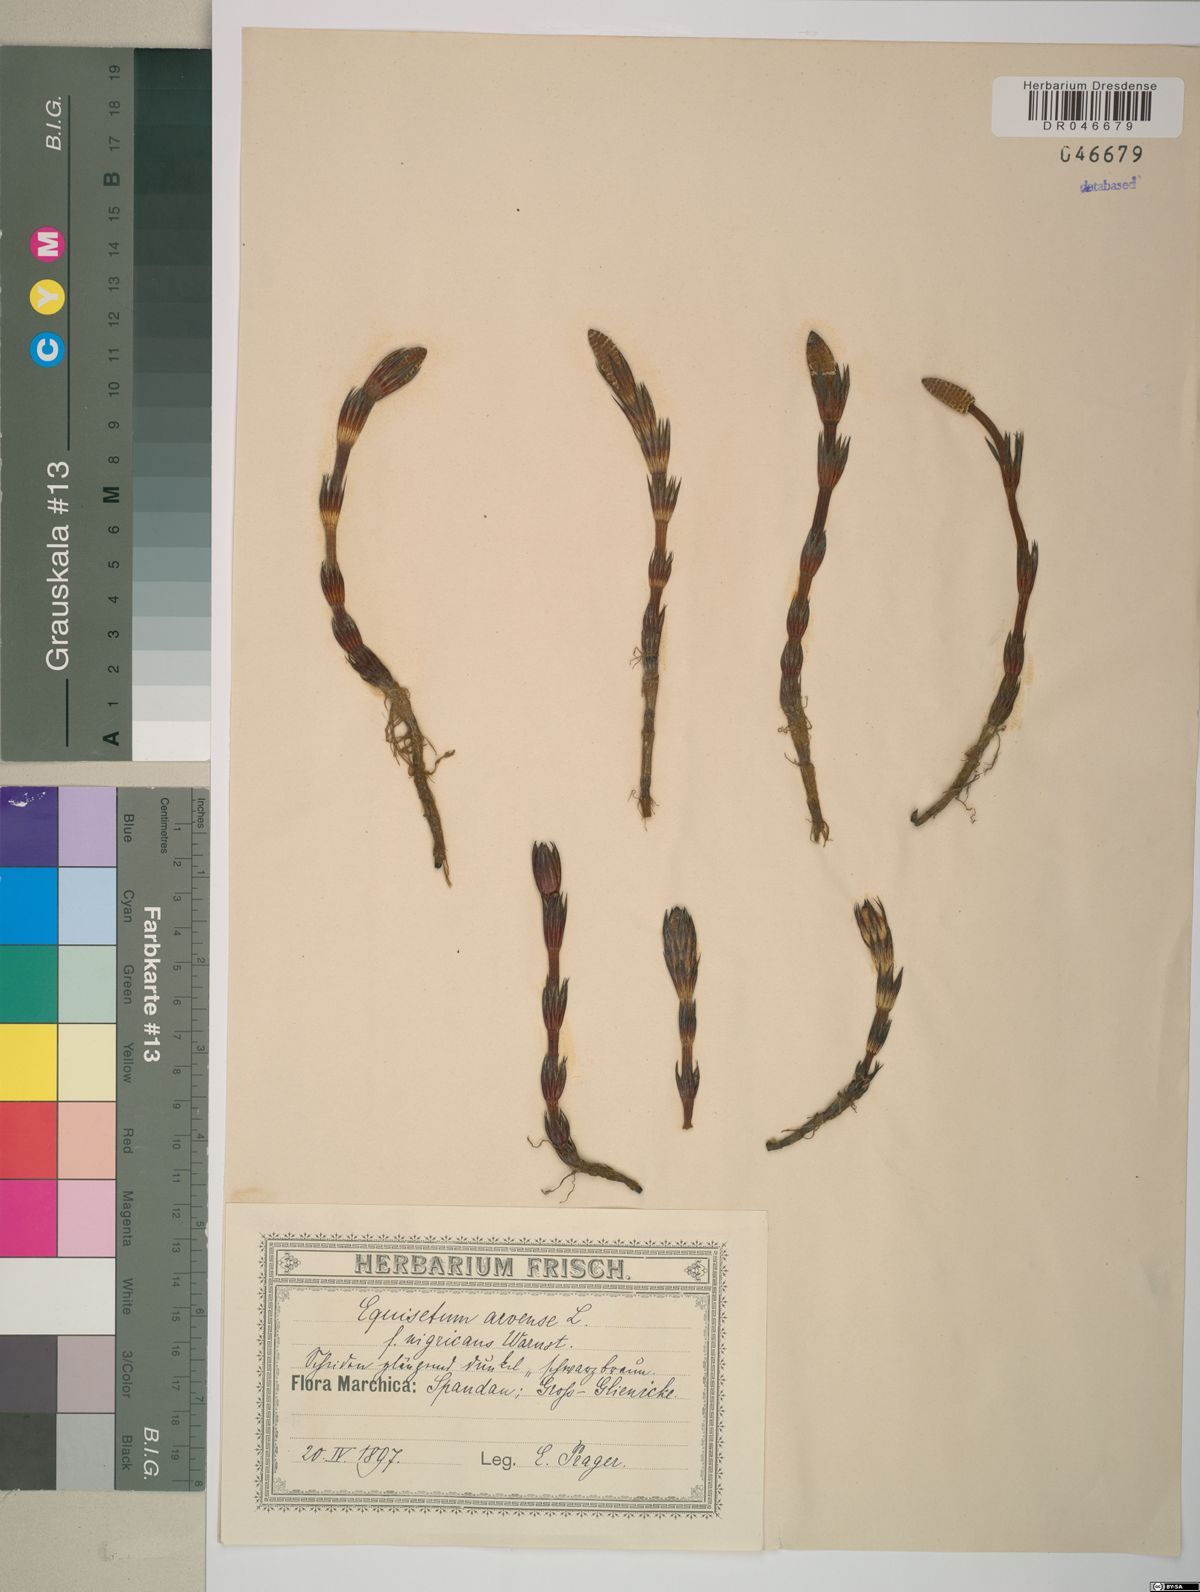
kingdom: Plantae
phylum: Tracheophyta
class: Polypodiopsida
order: Equisetales
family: Equisetaceae
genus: Equisetum
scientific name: Equisetum arvense
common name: Field horsetail
